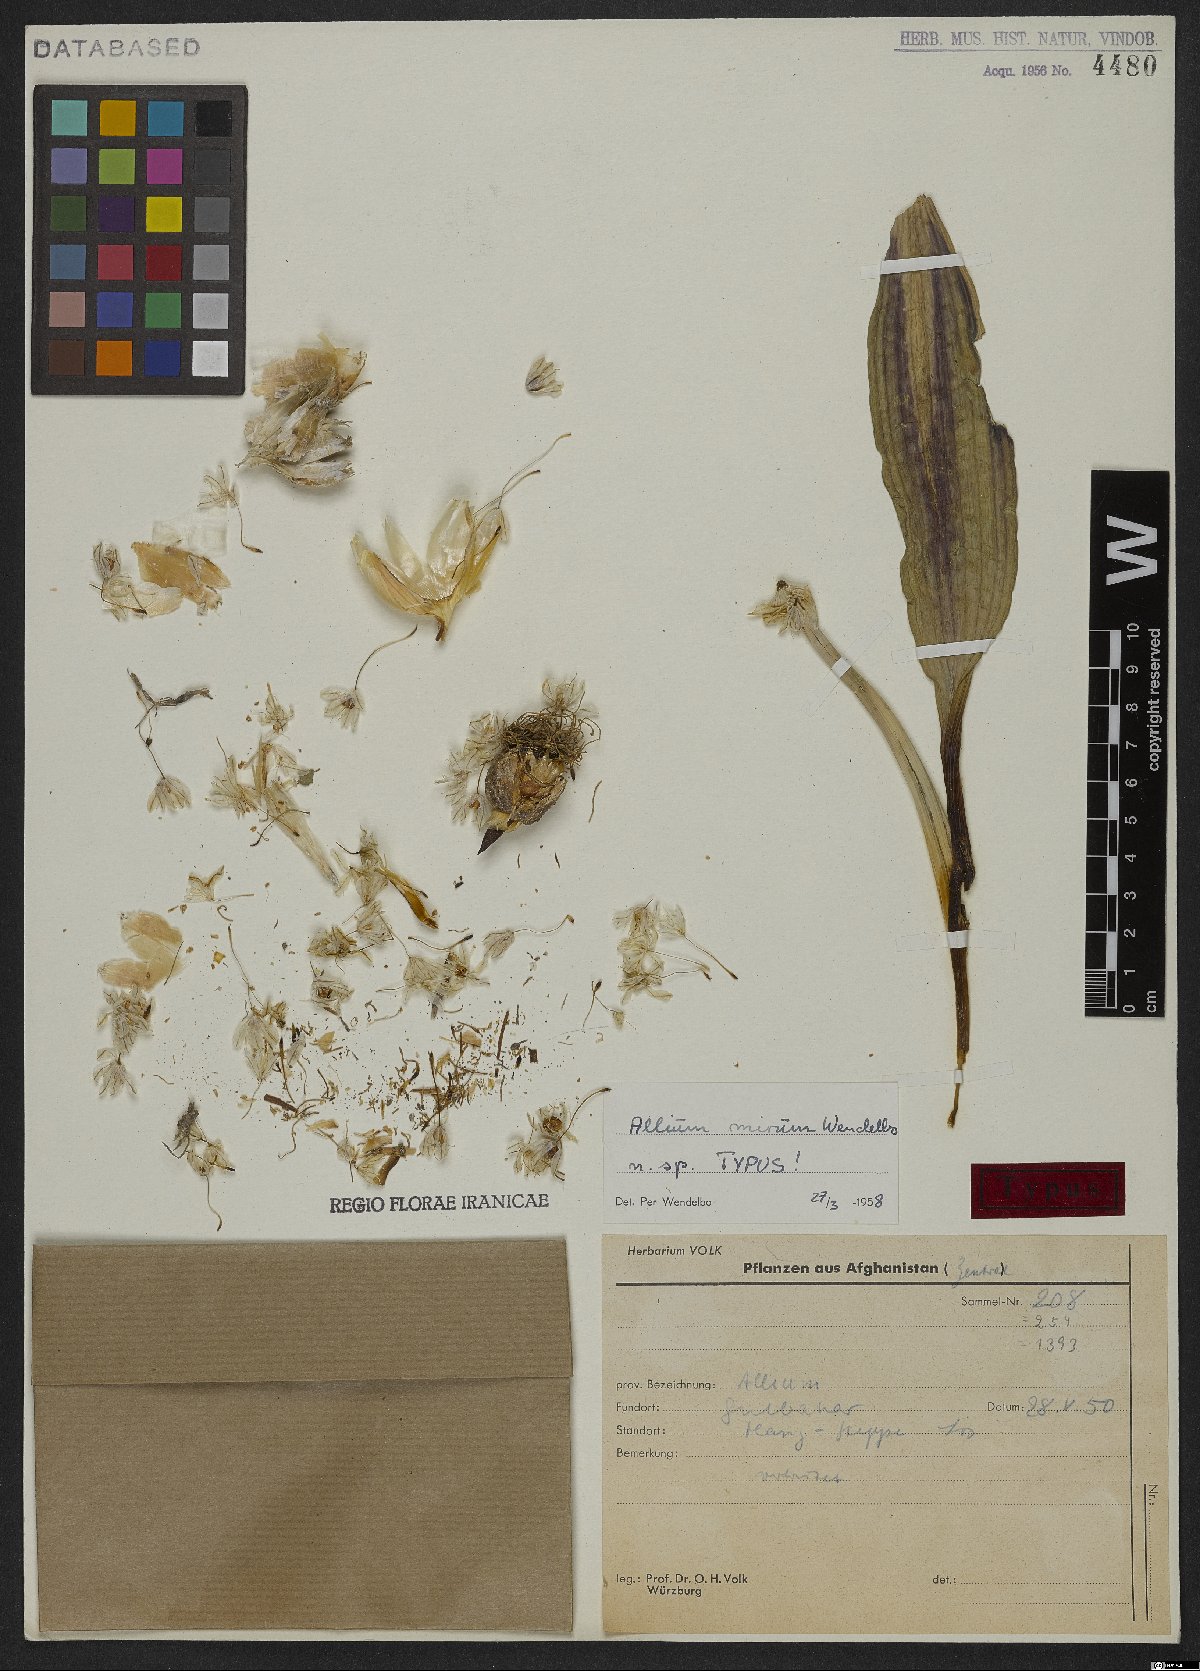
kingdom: Plantae
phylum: Tracheophyta
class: Liliopsida
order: Asparagales
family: Amaryllidaceae
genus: Allium
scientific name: Allium mirum
